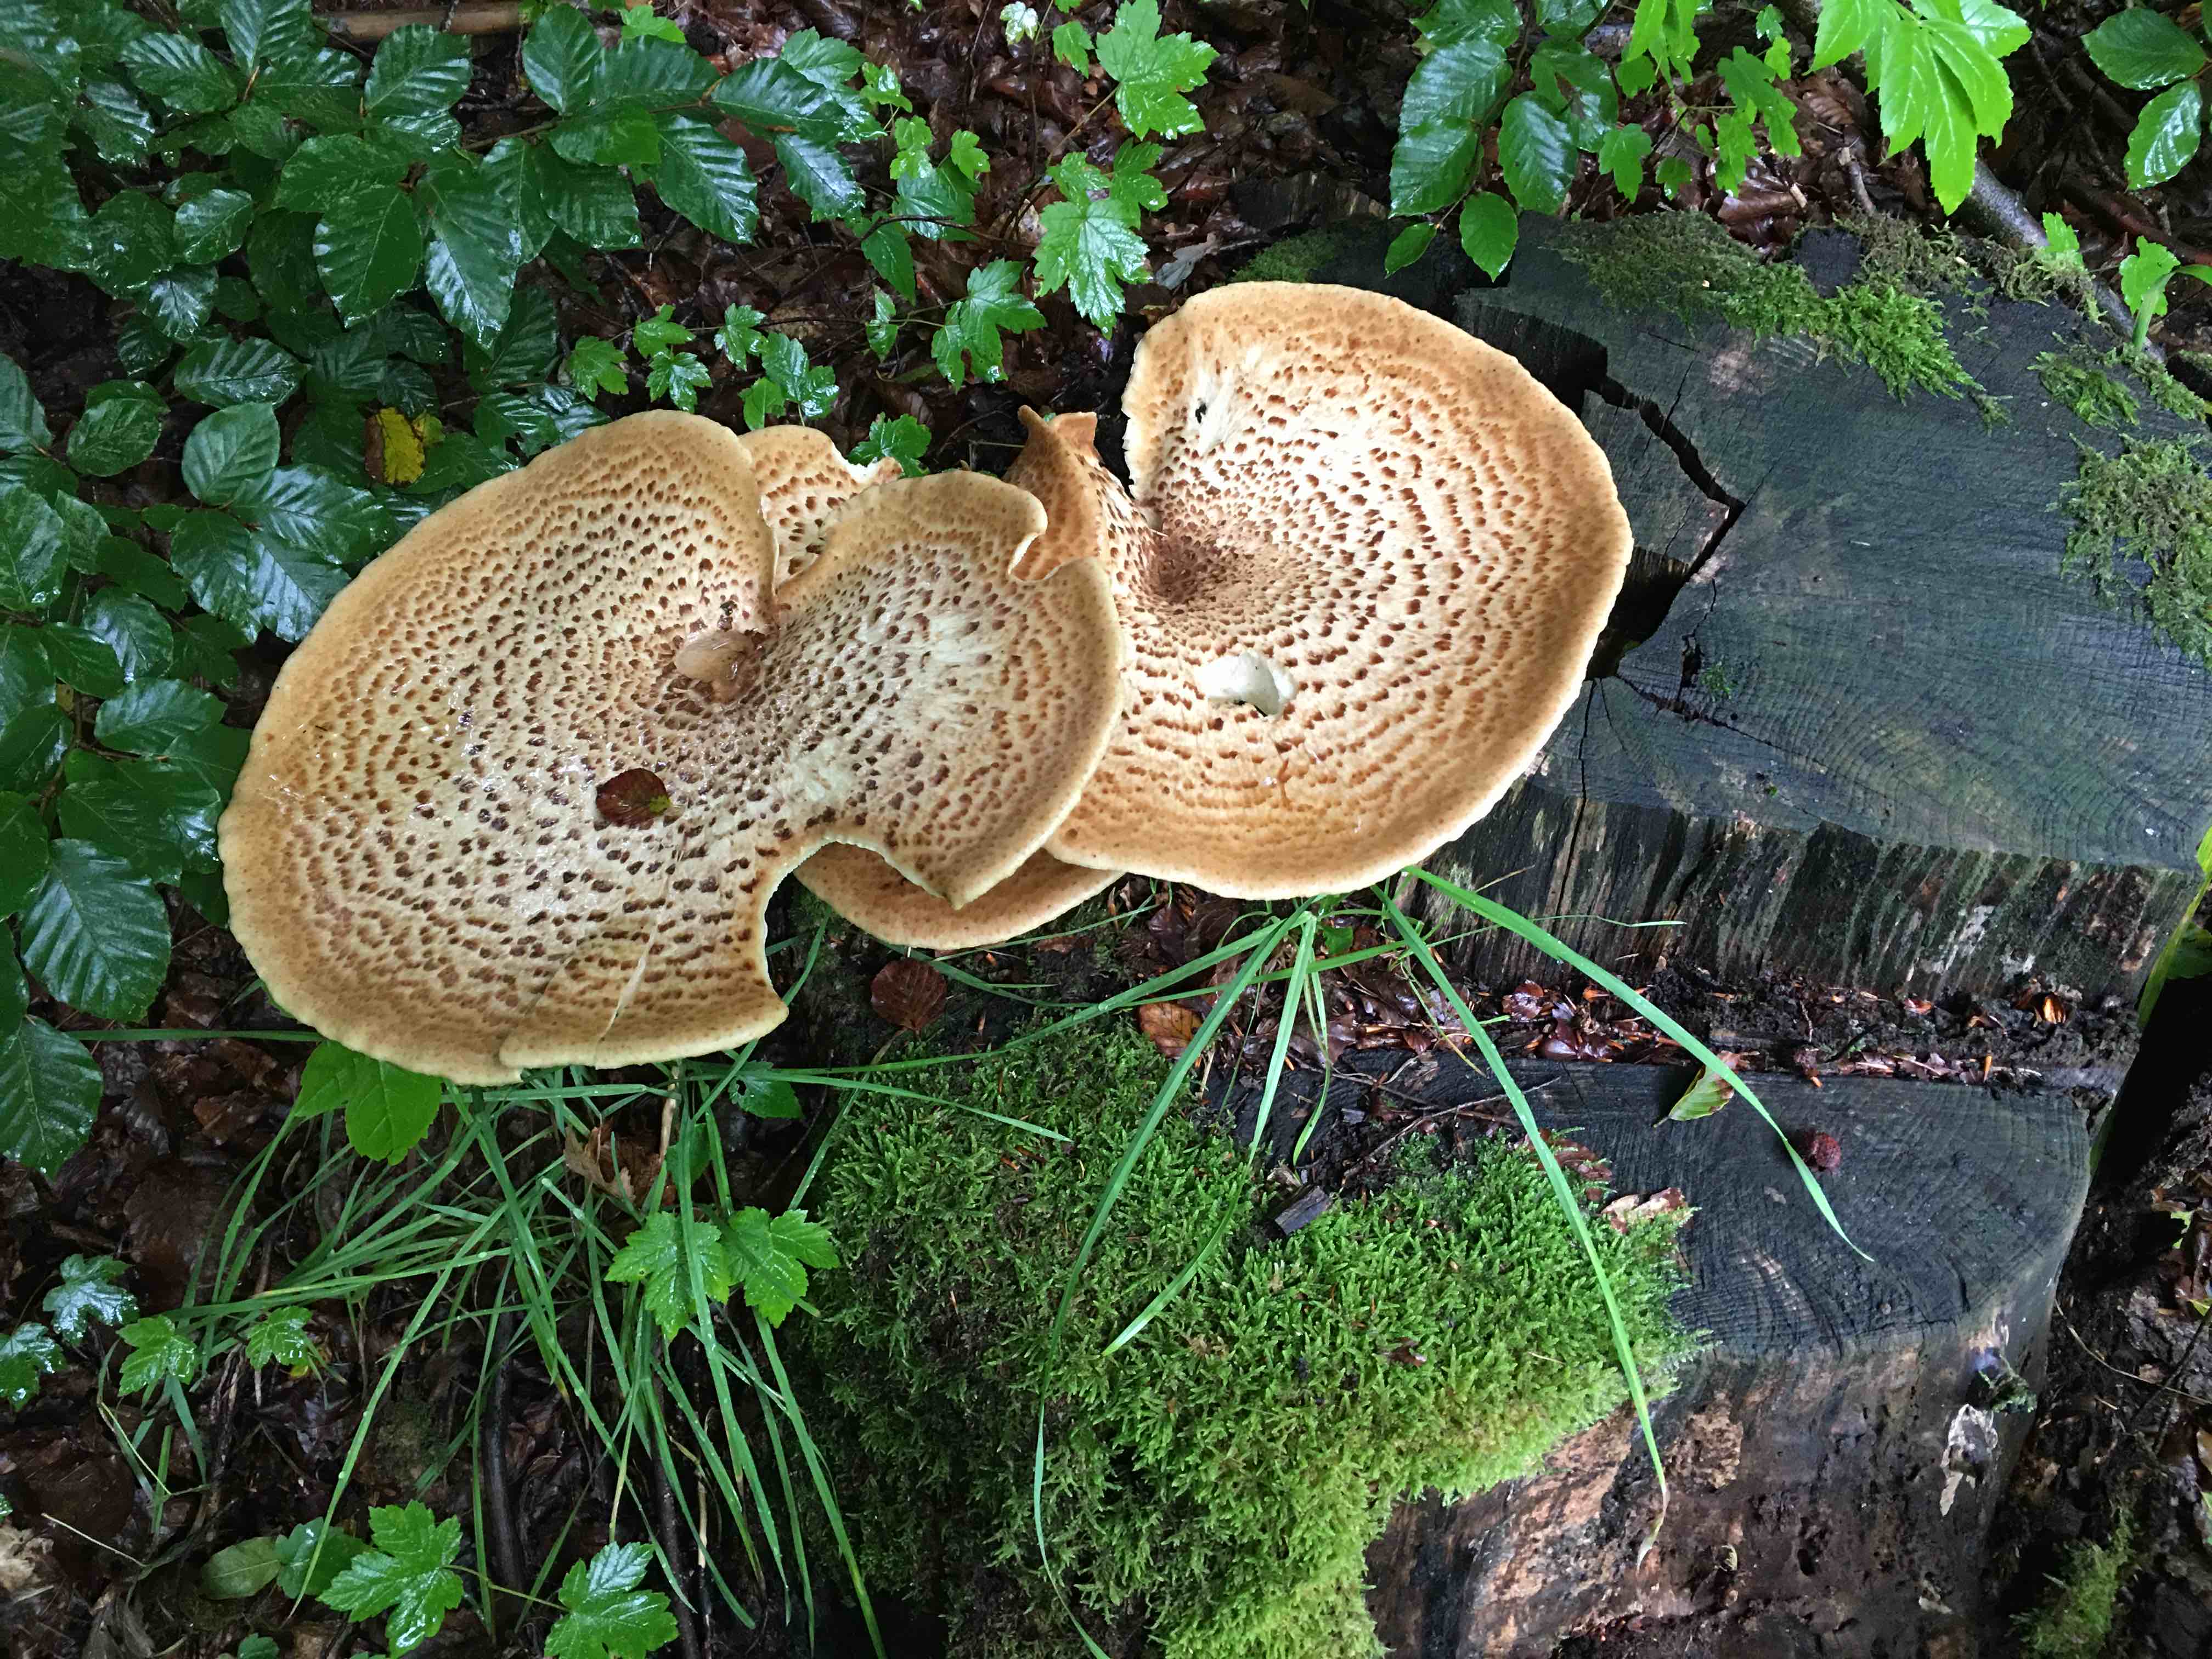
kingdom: Fungi
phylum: Basidiomycota
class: Agaricomycetes
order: Polyporales
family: Polyporaceae
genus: Cerioporus
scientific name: Cerioporus squamosus
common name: skællet stilkporesvamp
